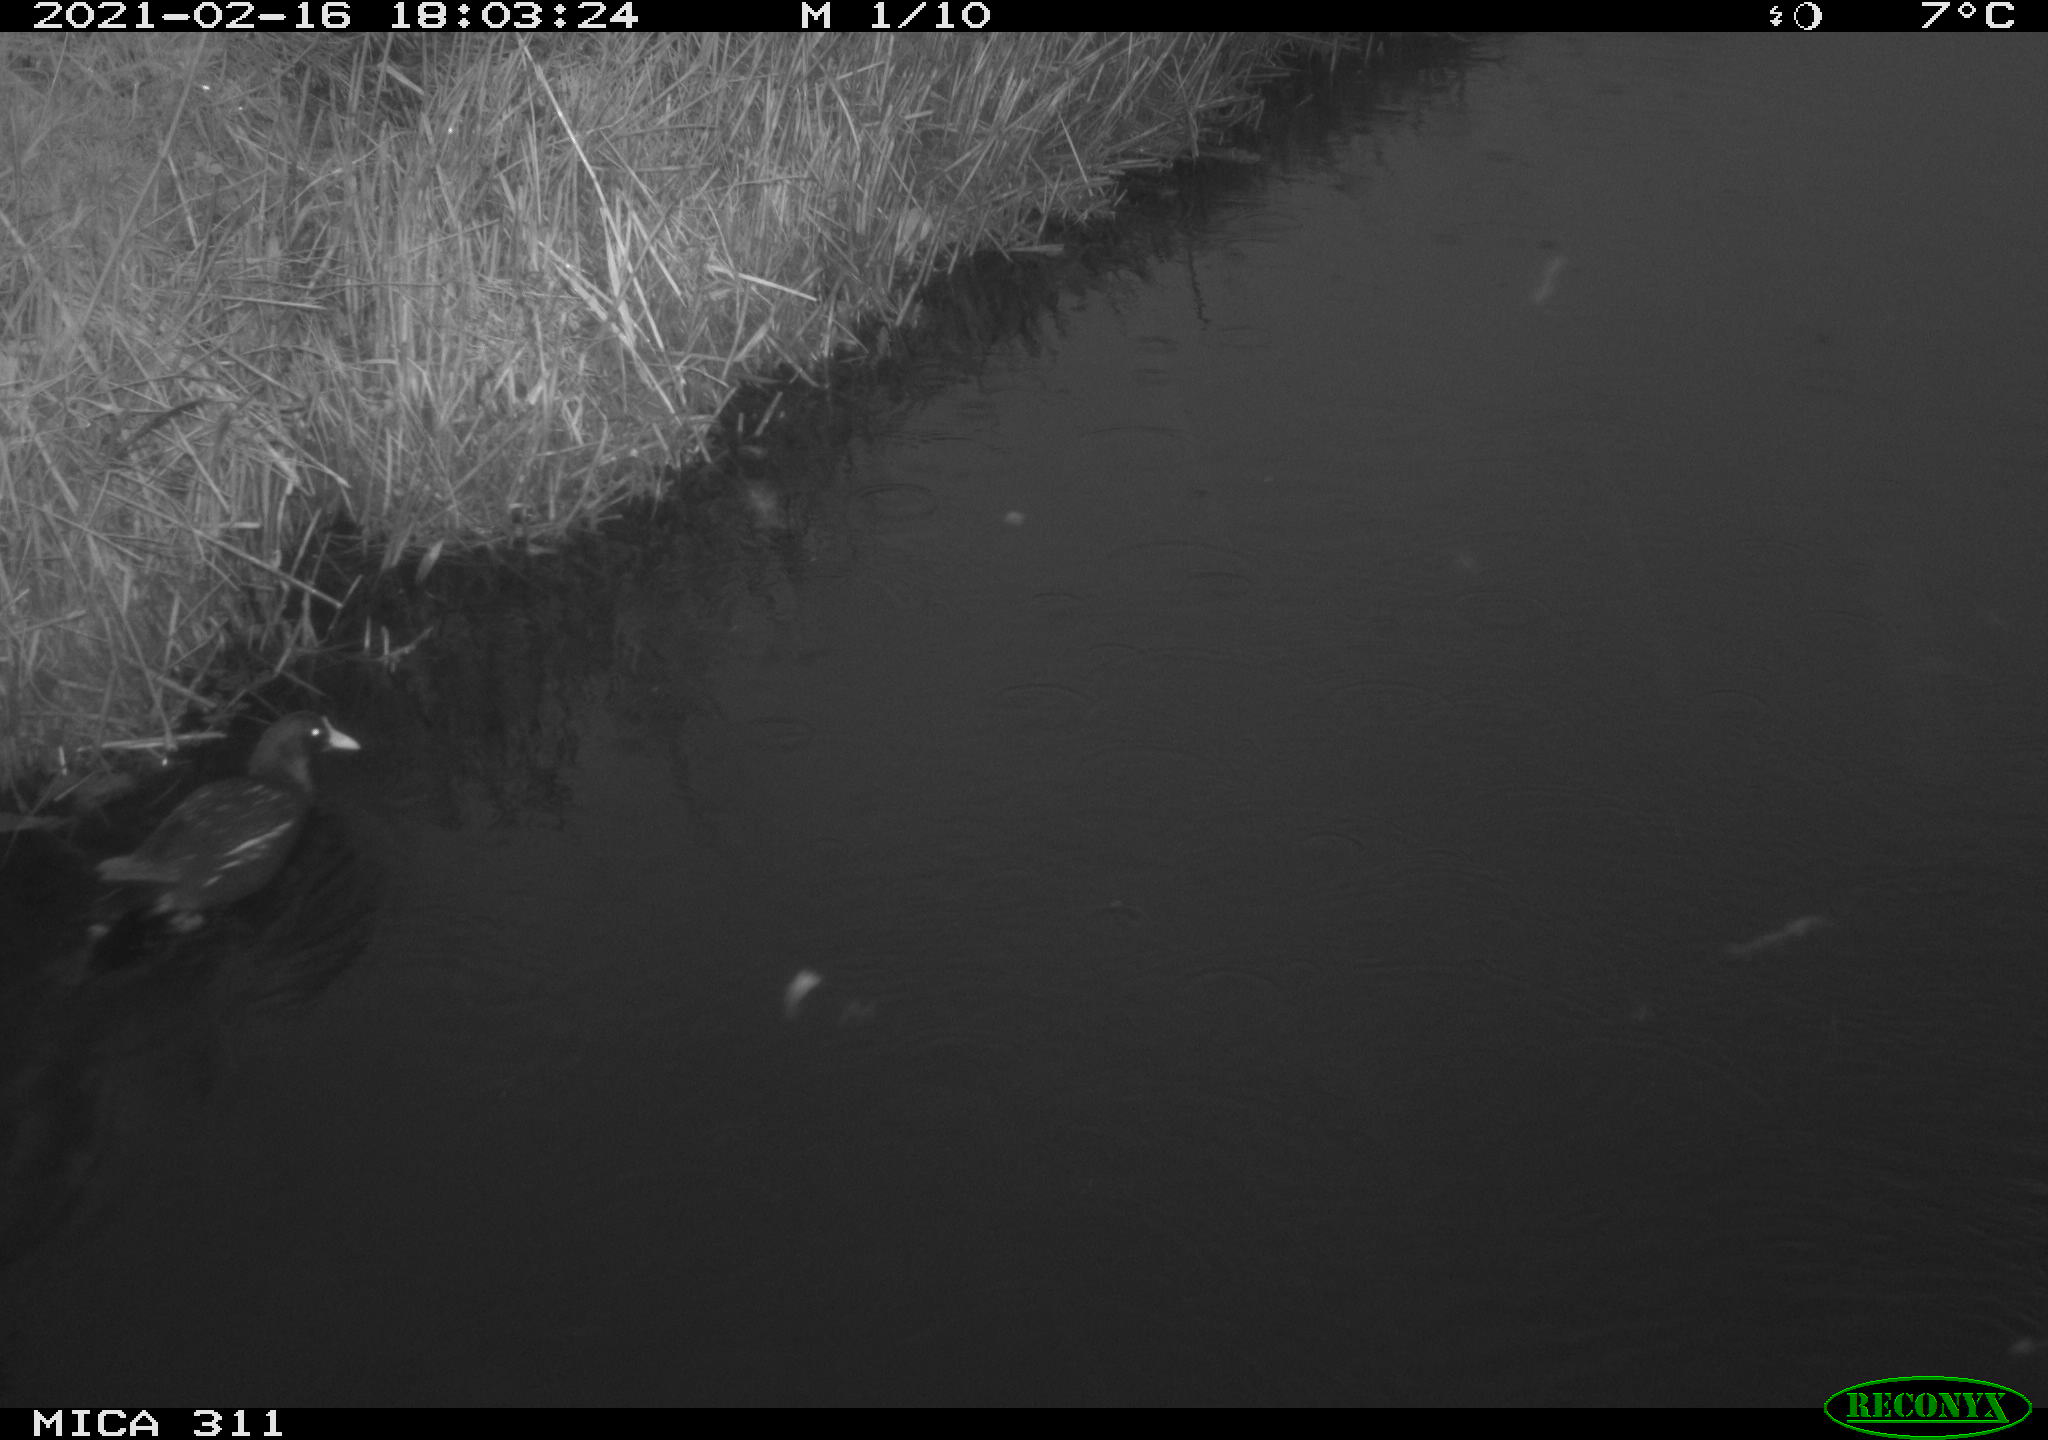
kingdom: Animalia
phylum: Chordata
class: Aves
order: Gruiformes
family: Rallidae
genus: Gallinula
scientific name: Gallinula chloropus
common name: Common moorhen
